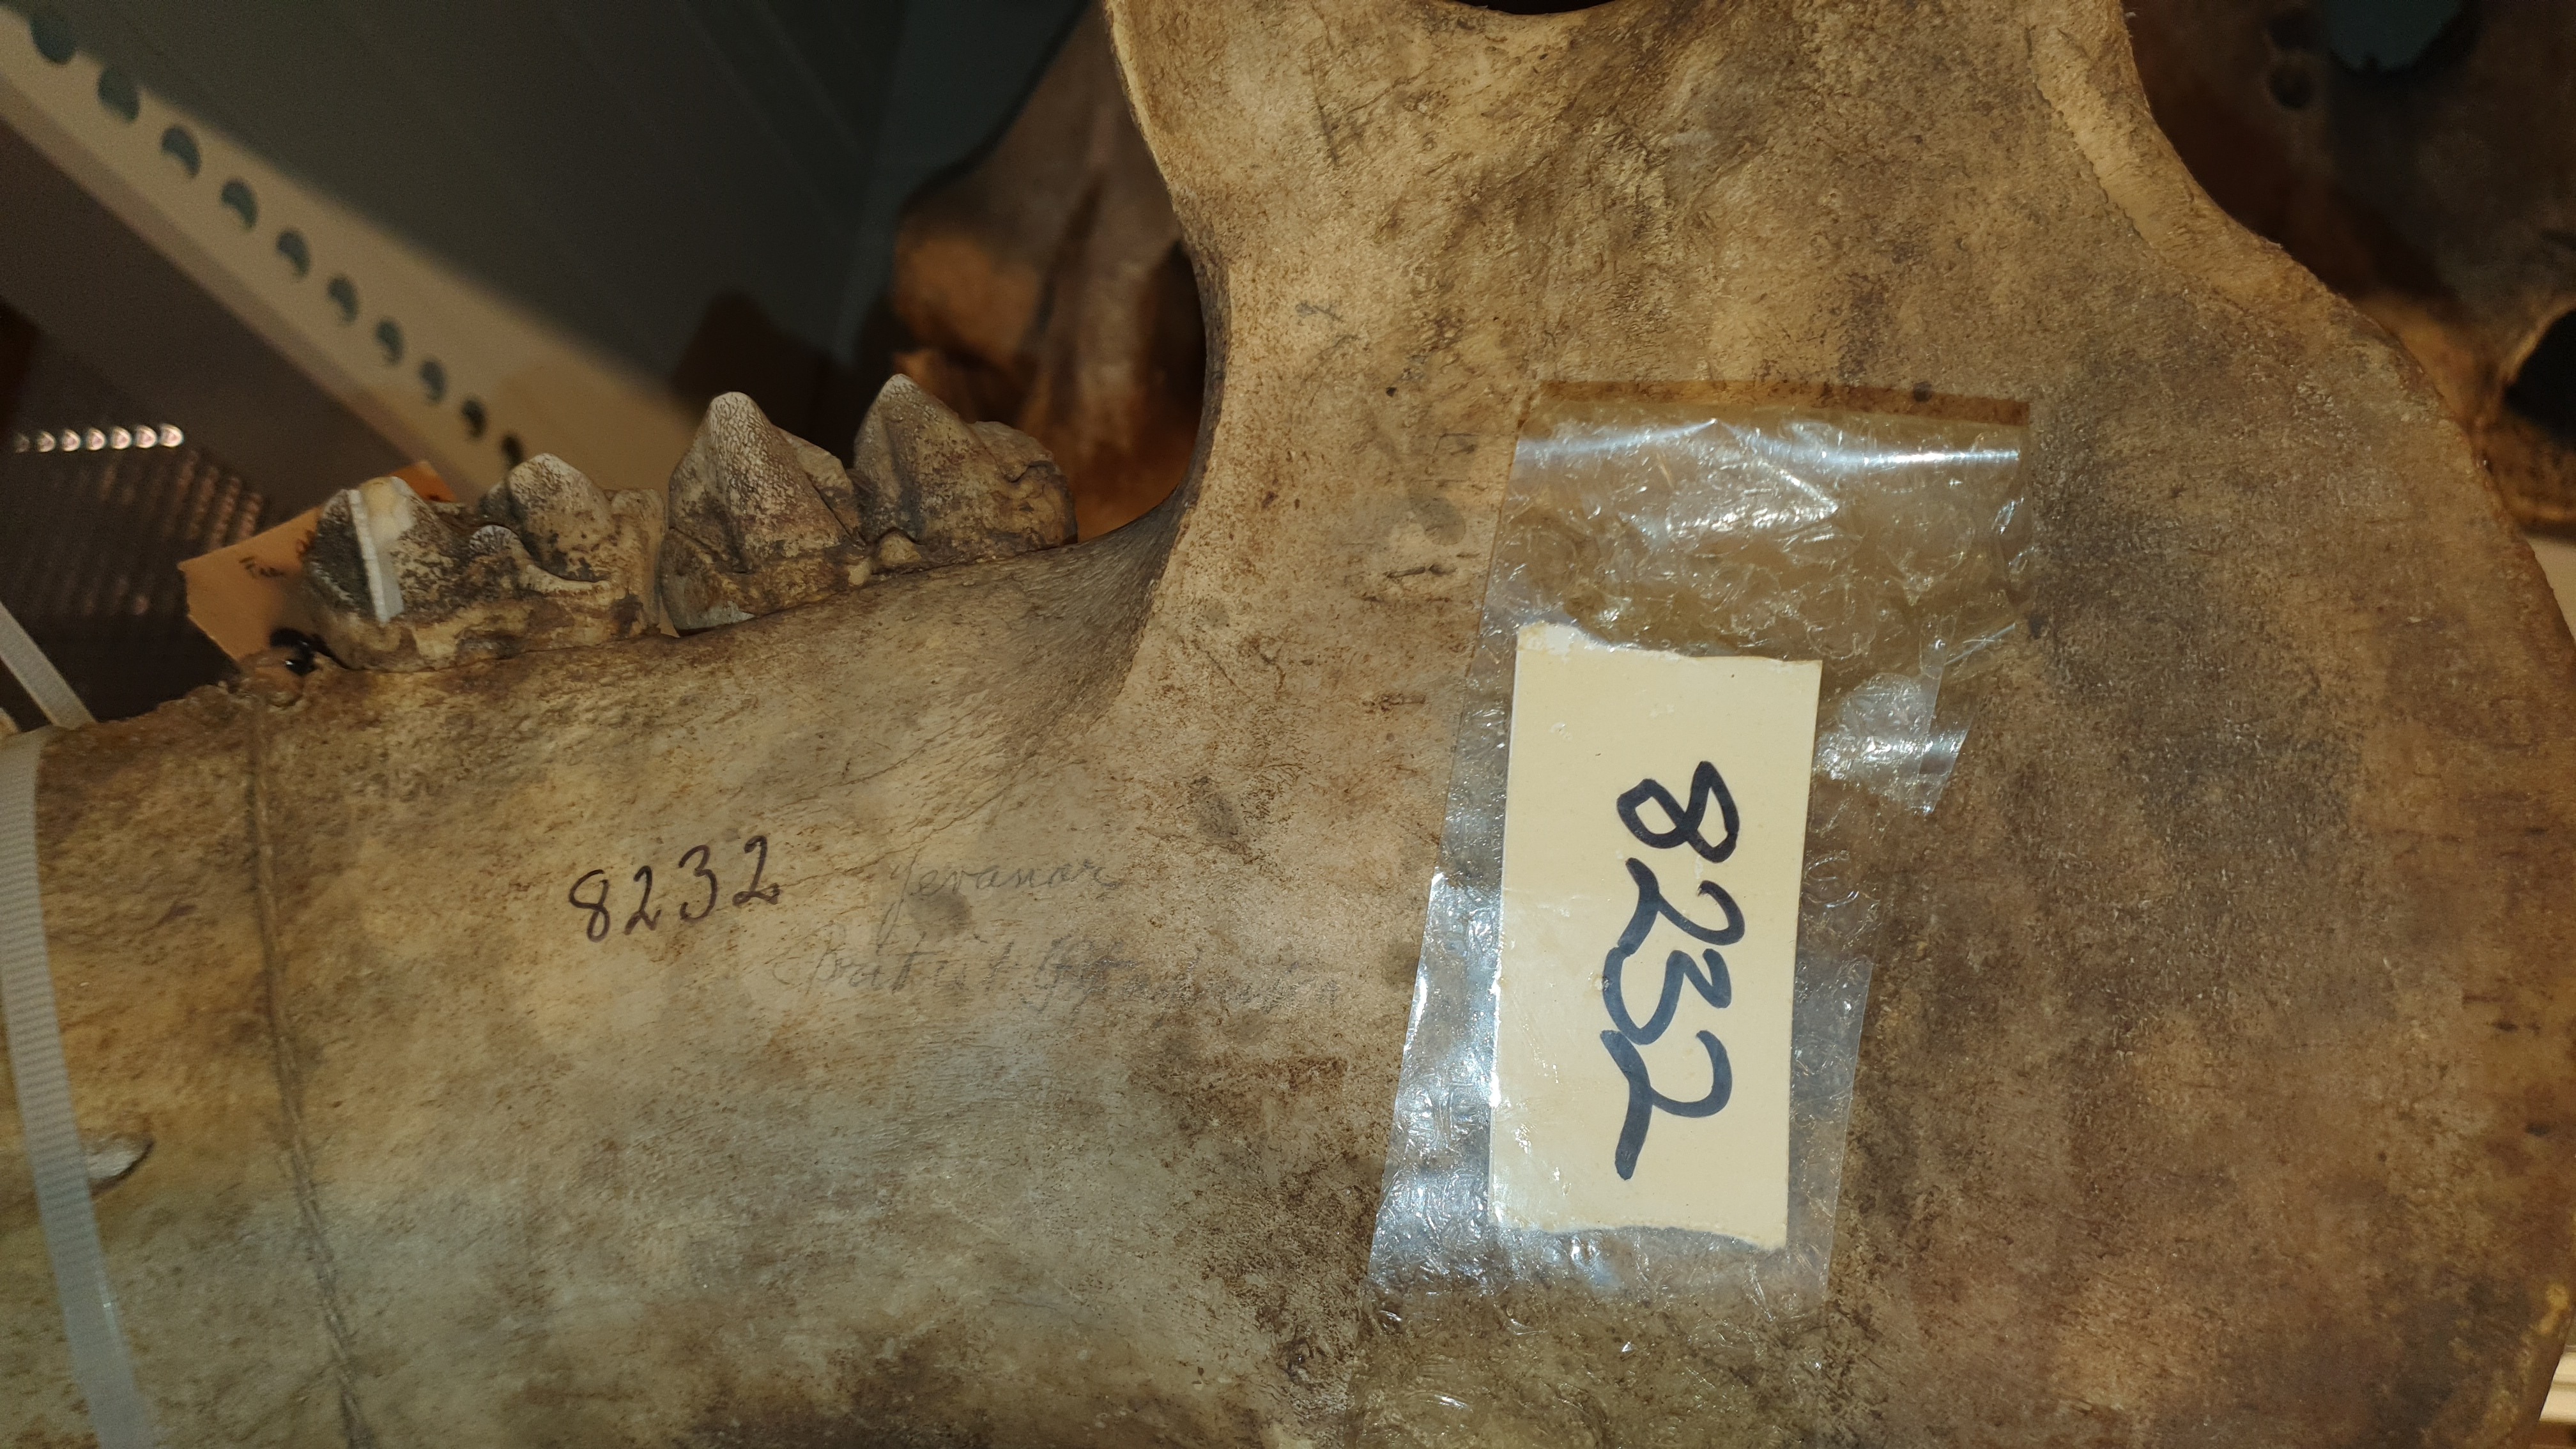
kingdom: Animalia
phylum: Chordata
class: Mammalia
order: Artiodactyla
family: Hippopotamidae
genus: Hippopotamus
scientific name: Hippopotamus amphibius
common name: Common hippopotamus
